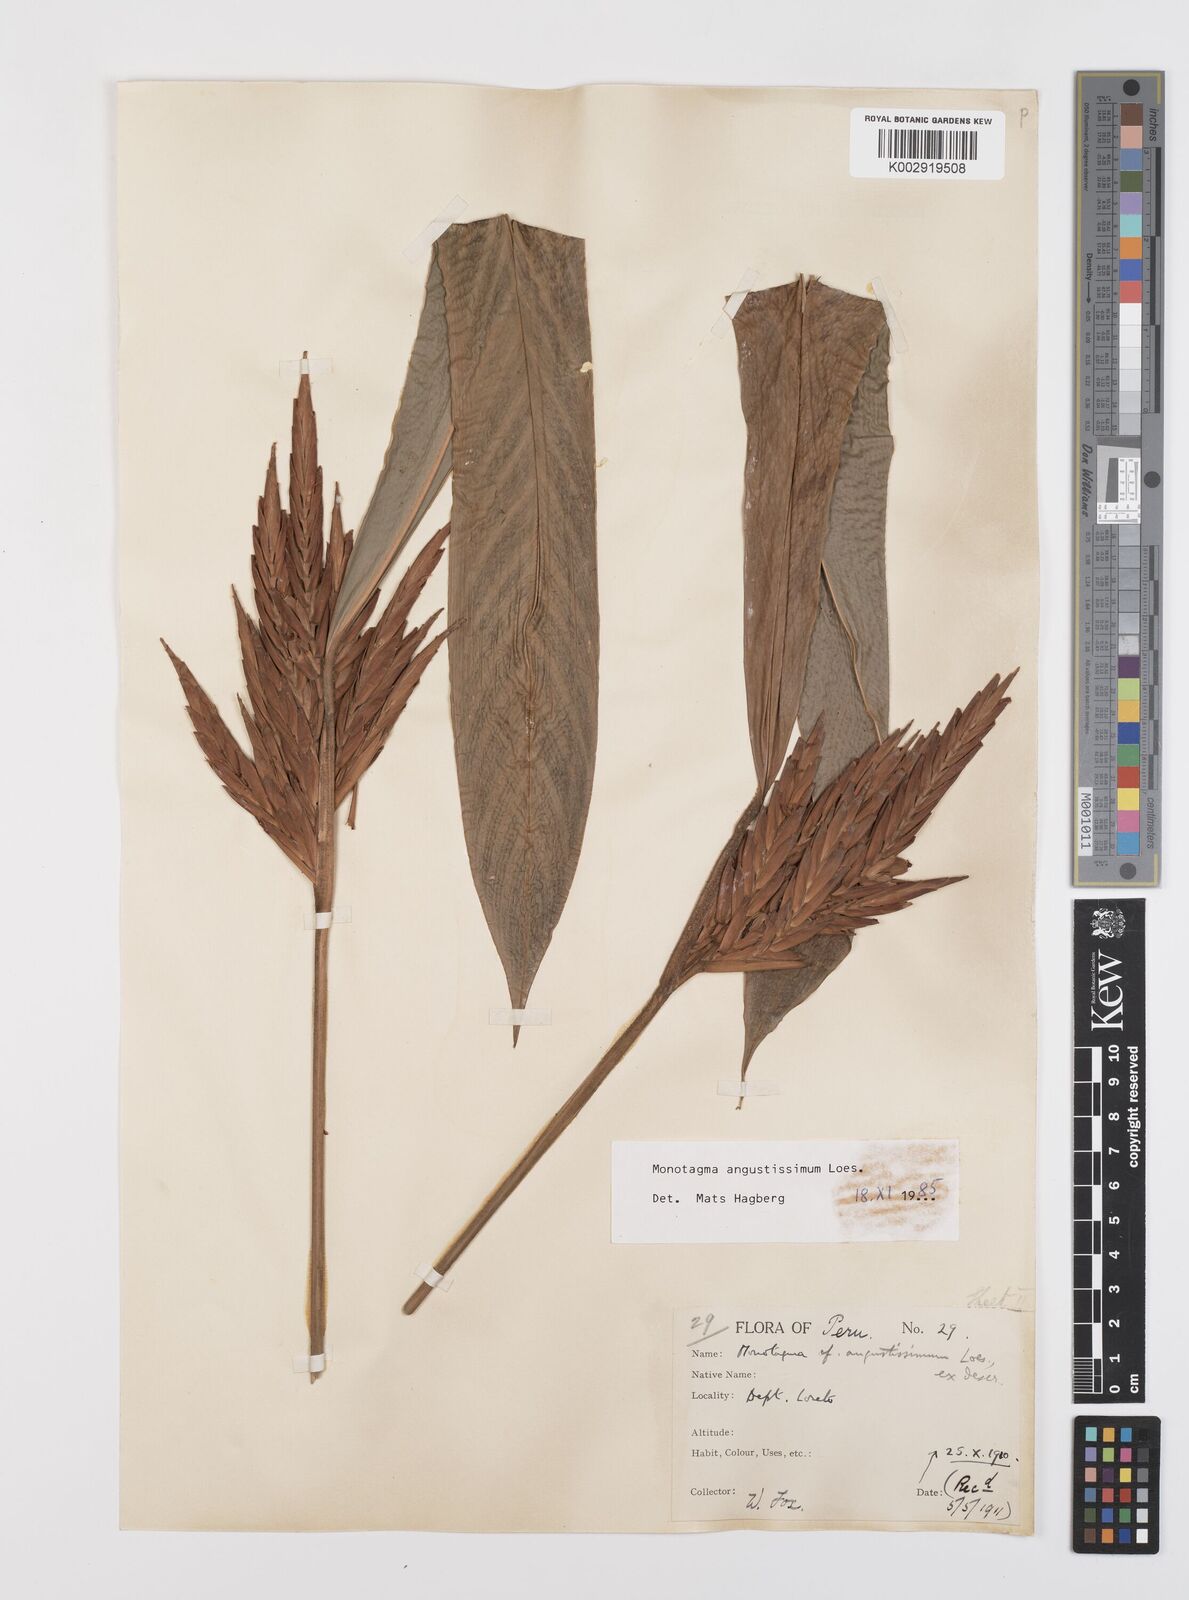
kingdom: Plantae
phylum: Tracheophyta
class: Liliopsida
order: Zingiberales
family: Marantaceae
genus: Monotagma
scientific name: Monotagma angustissimum
